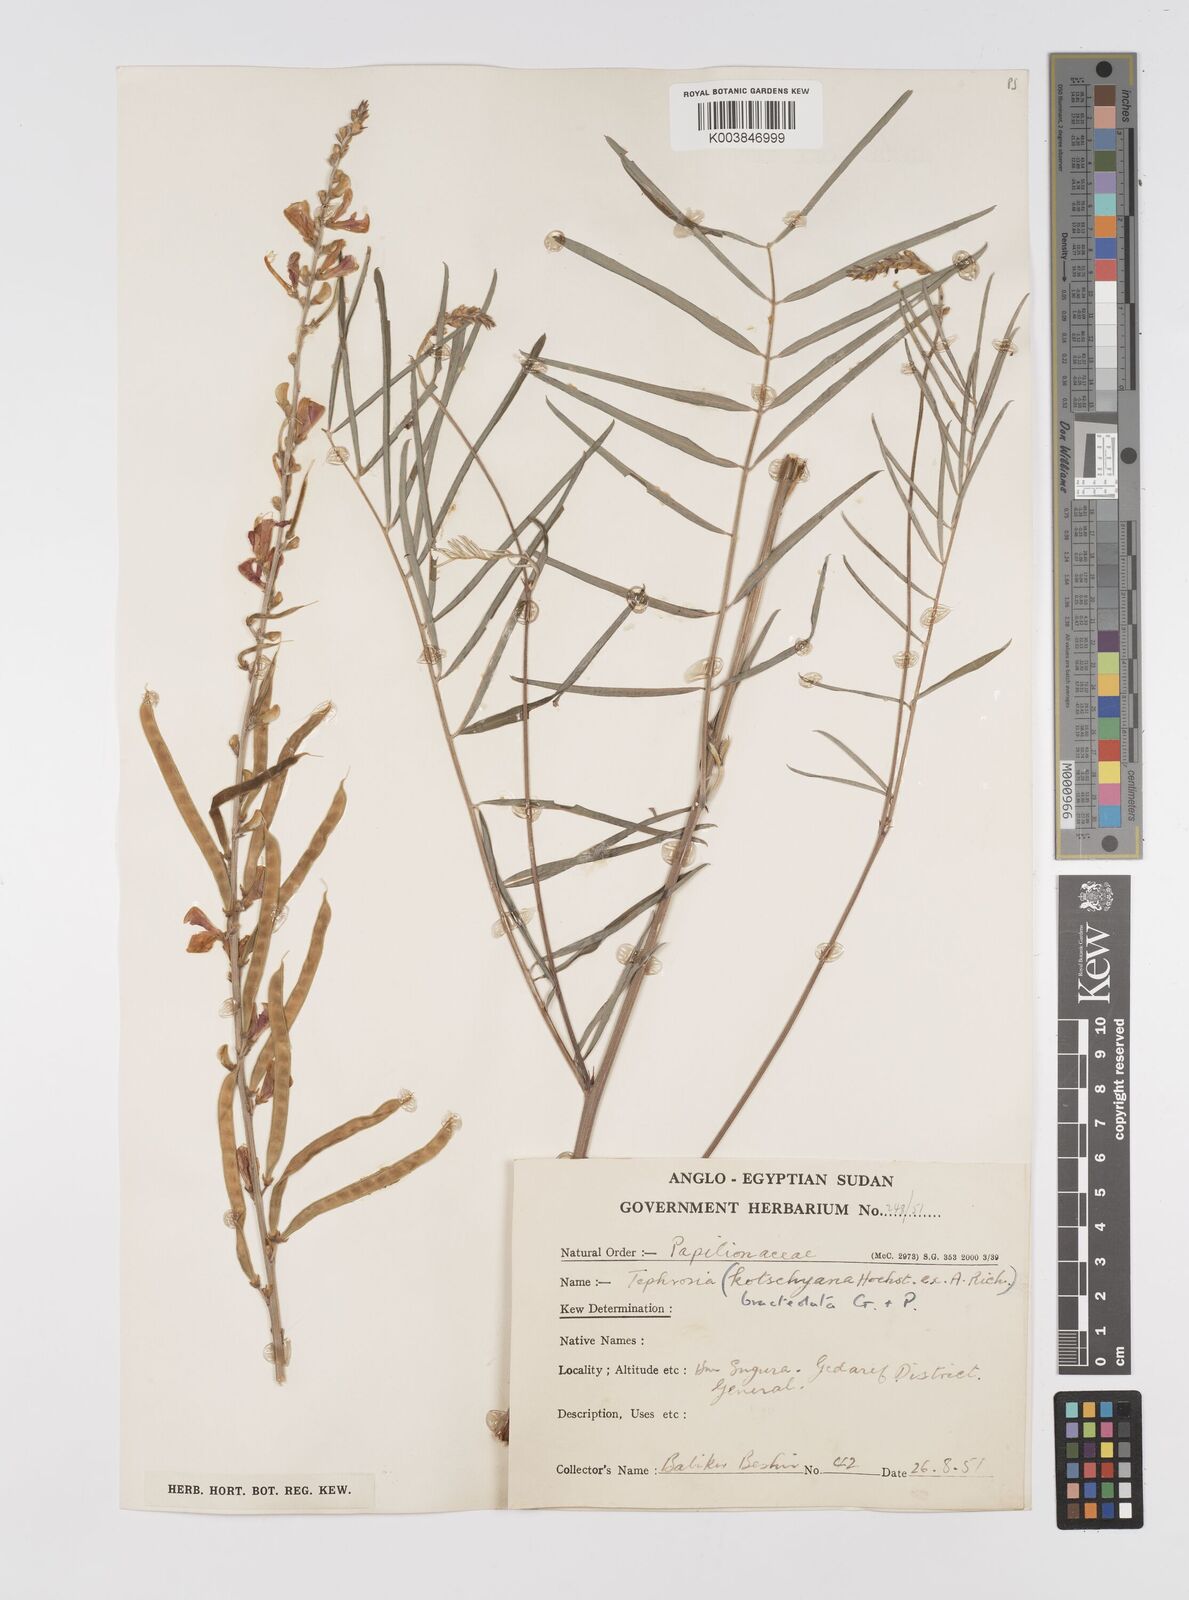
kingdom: Plantae
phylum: Tracheophyta
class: Magnoliopsida
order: Fabales
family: Fabaceae
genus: Tephrosia
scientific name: Tephrosia bracteolata
